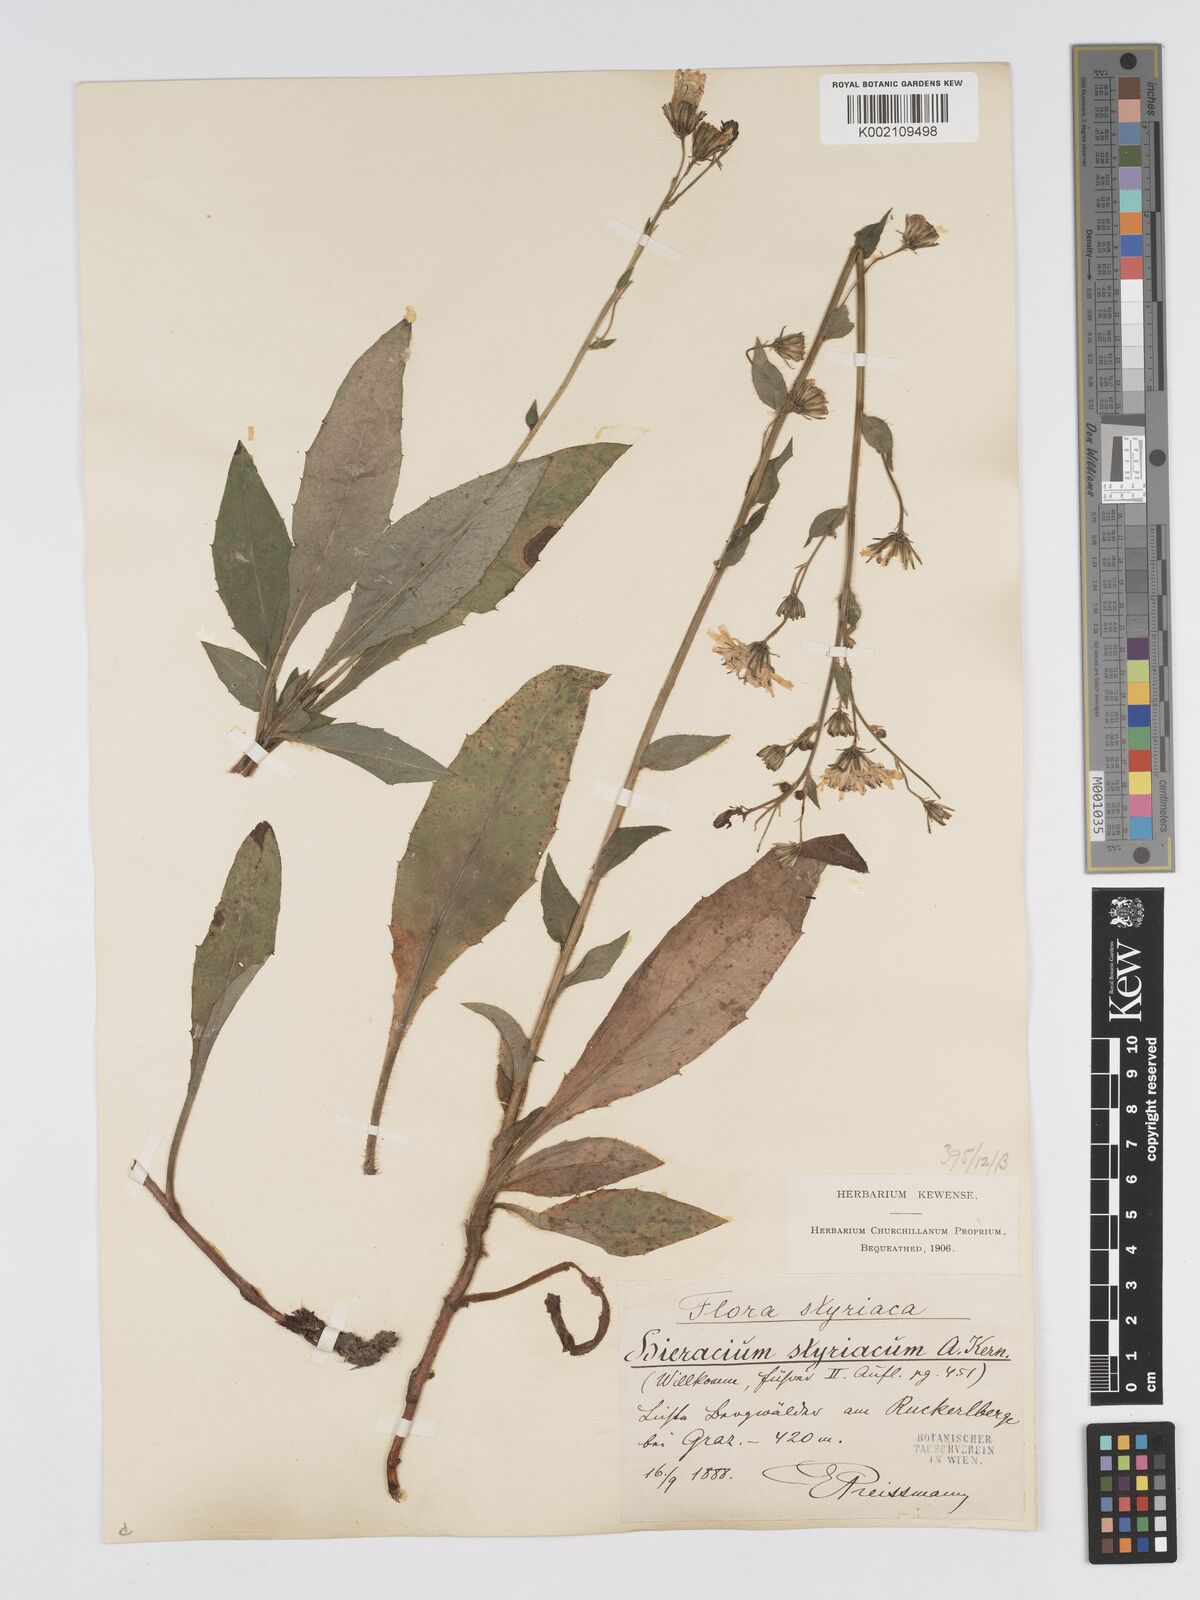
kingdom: Plantae
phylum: Tracheophyta
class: Magnoliopsida
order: Asterales
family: Asteraceae
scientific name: Asteraceae
